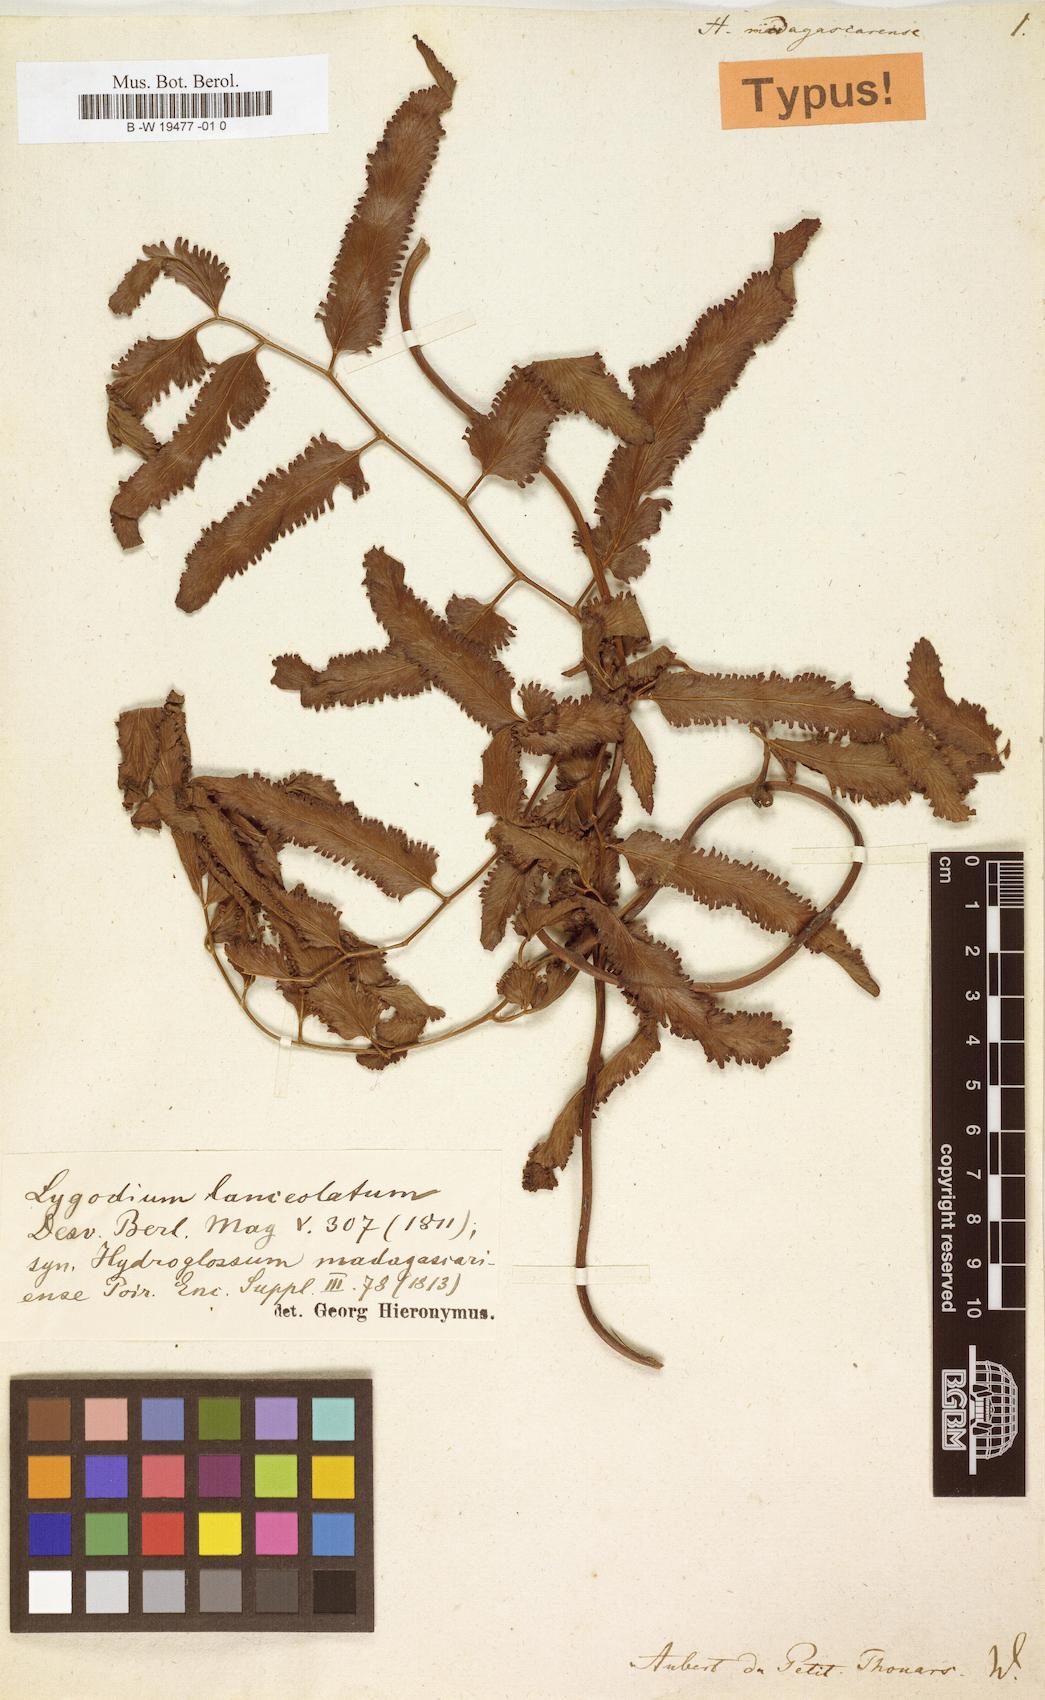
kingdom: Plantae
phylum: Tracheophyta
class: Polypodiopsida
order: Schizaeales
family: Lygodiaceae
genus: Lygodium
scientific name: Lygodium lanceolatum
